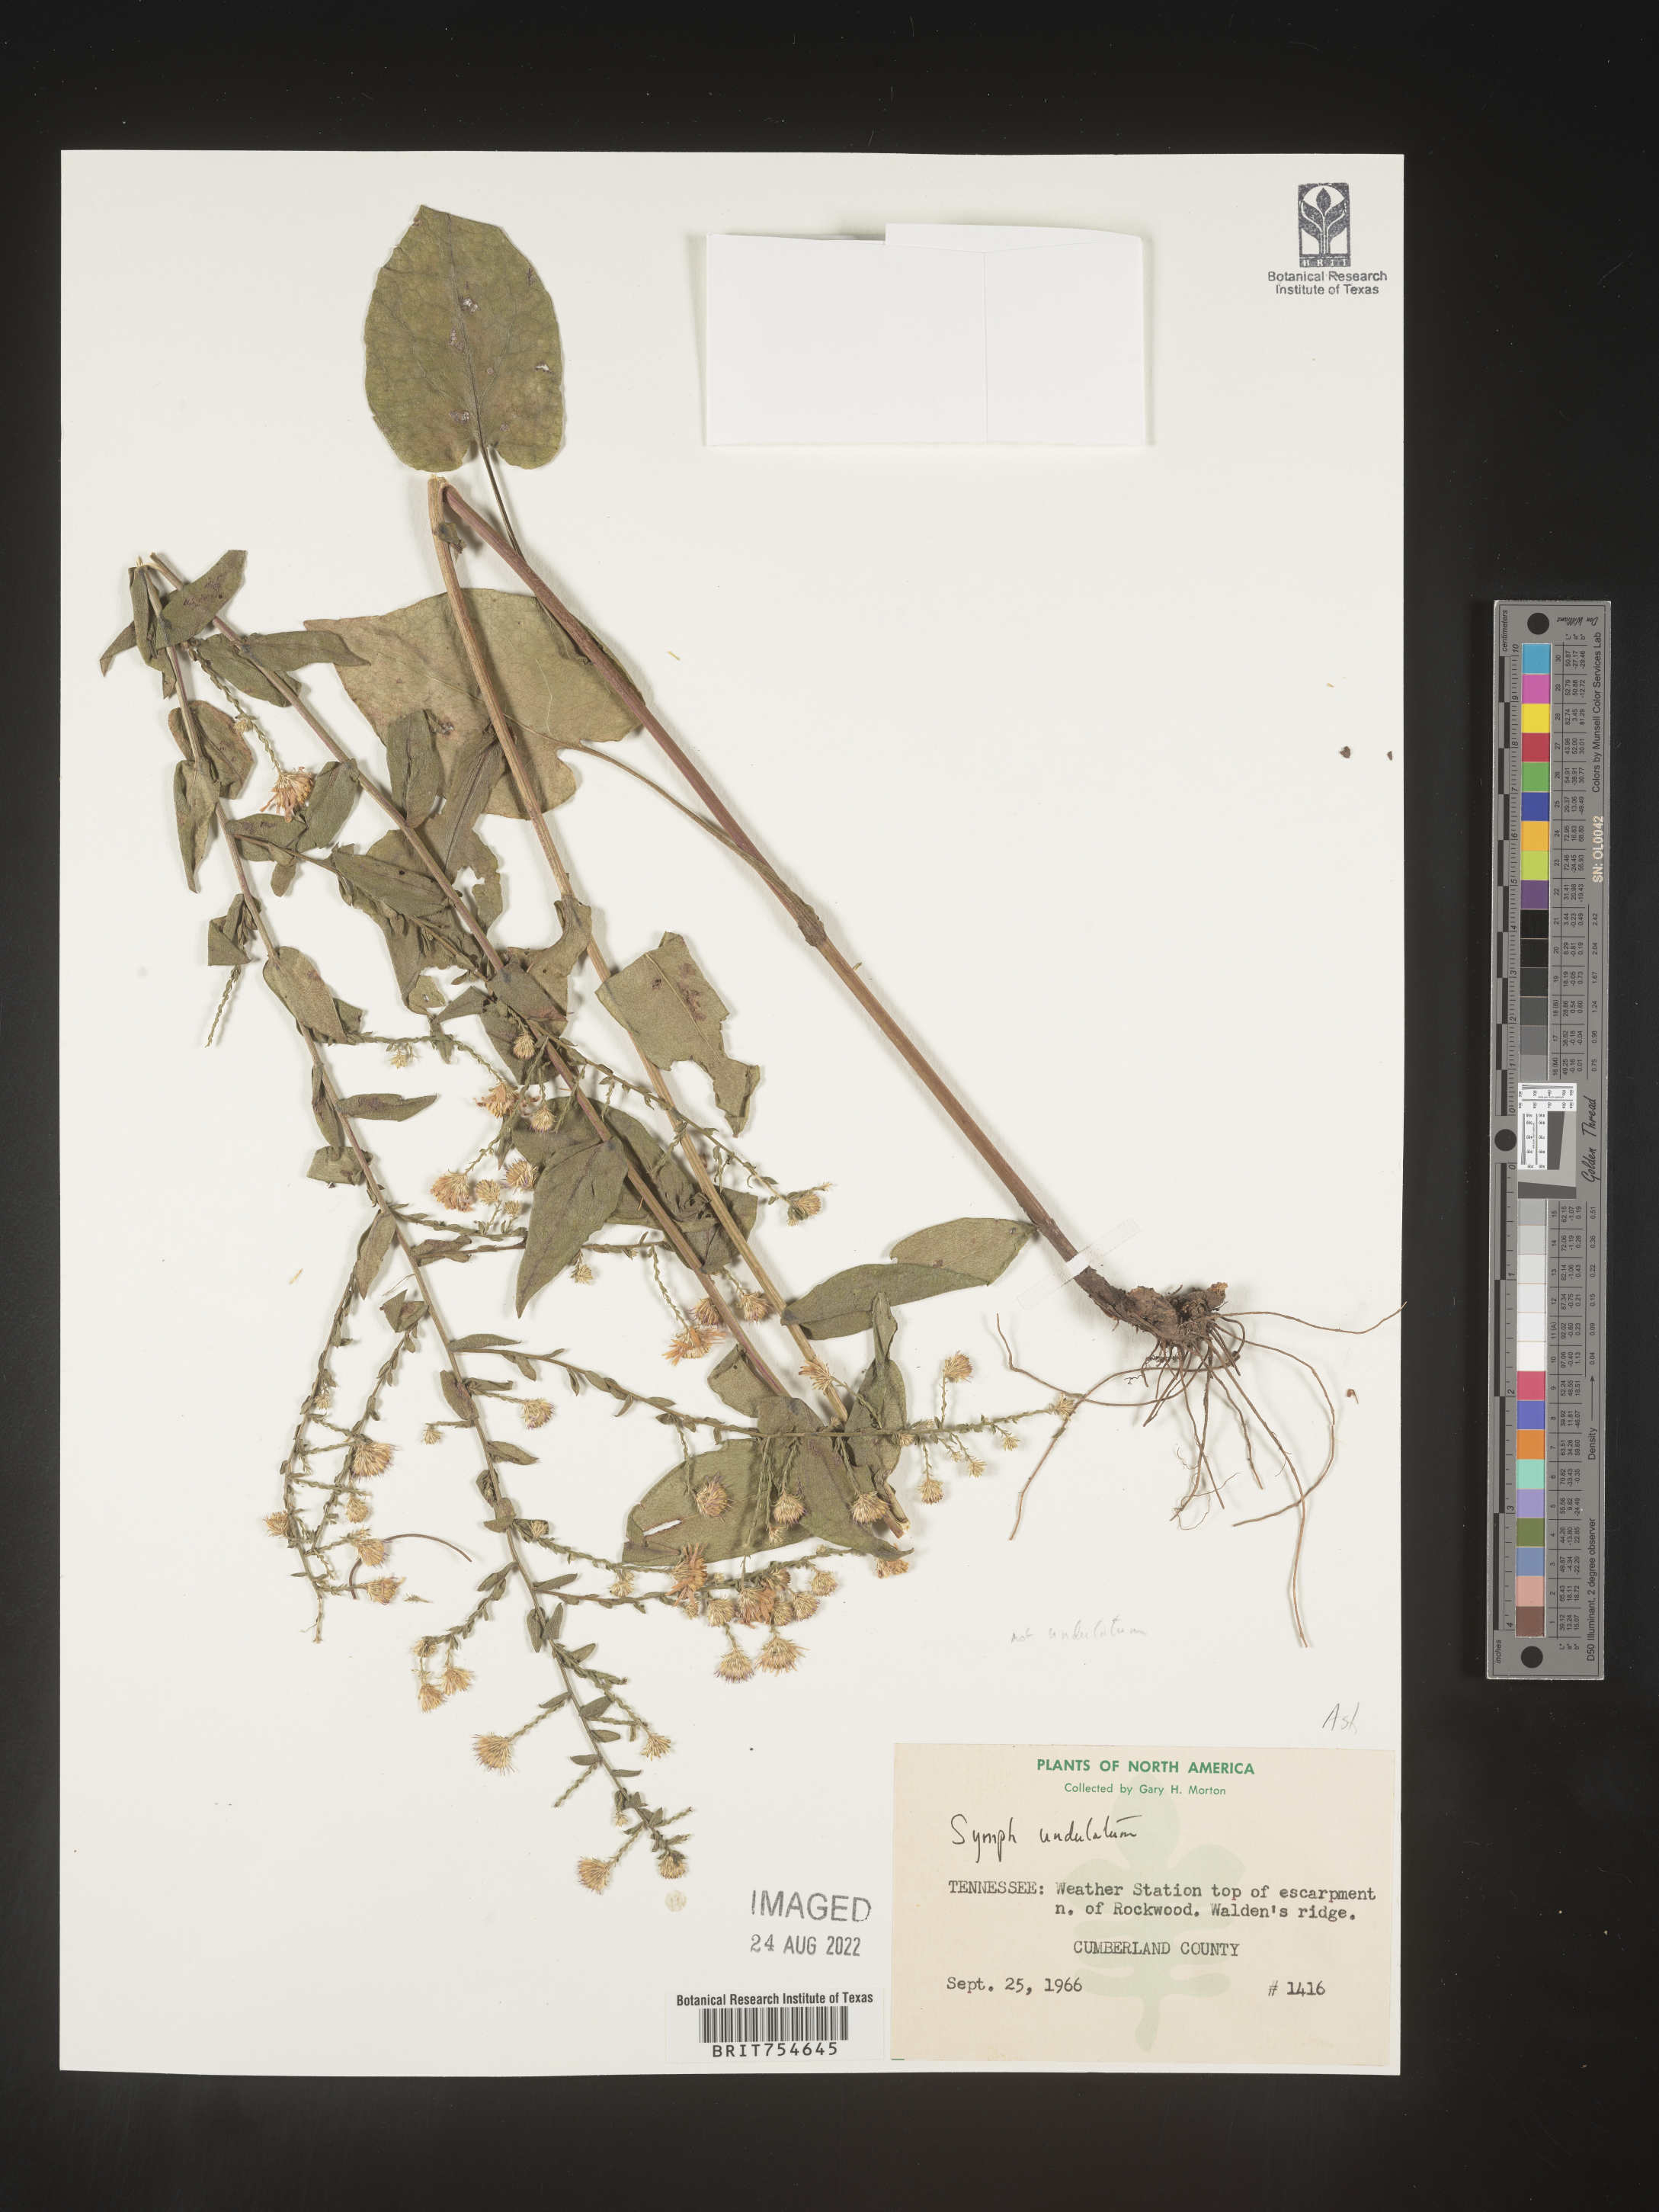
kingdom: Plantae
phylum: Tracheophyta
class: Magnoliopsida
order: Asterales
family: Asteraceae
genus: Symphyotrichum
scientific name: Symphyotrichum undulatum
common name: Clasping heart-leaf aster
